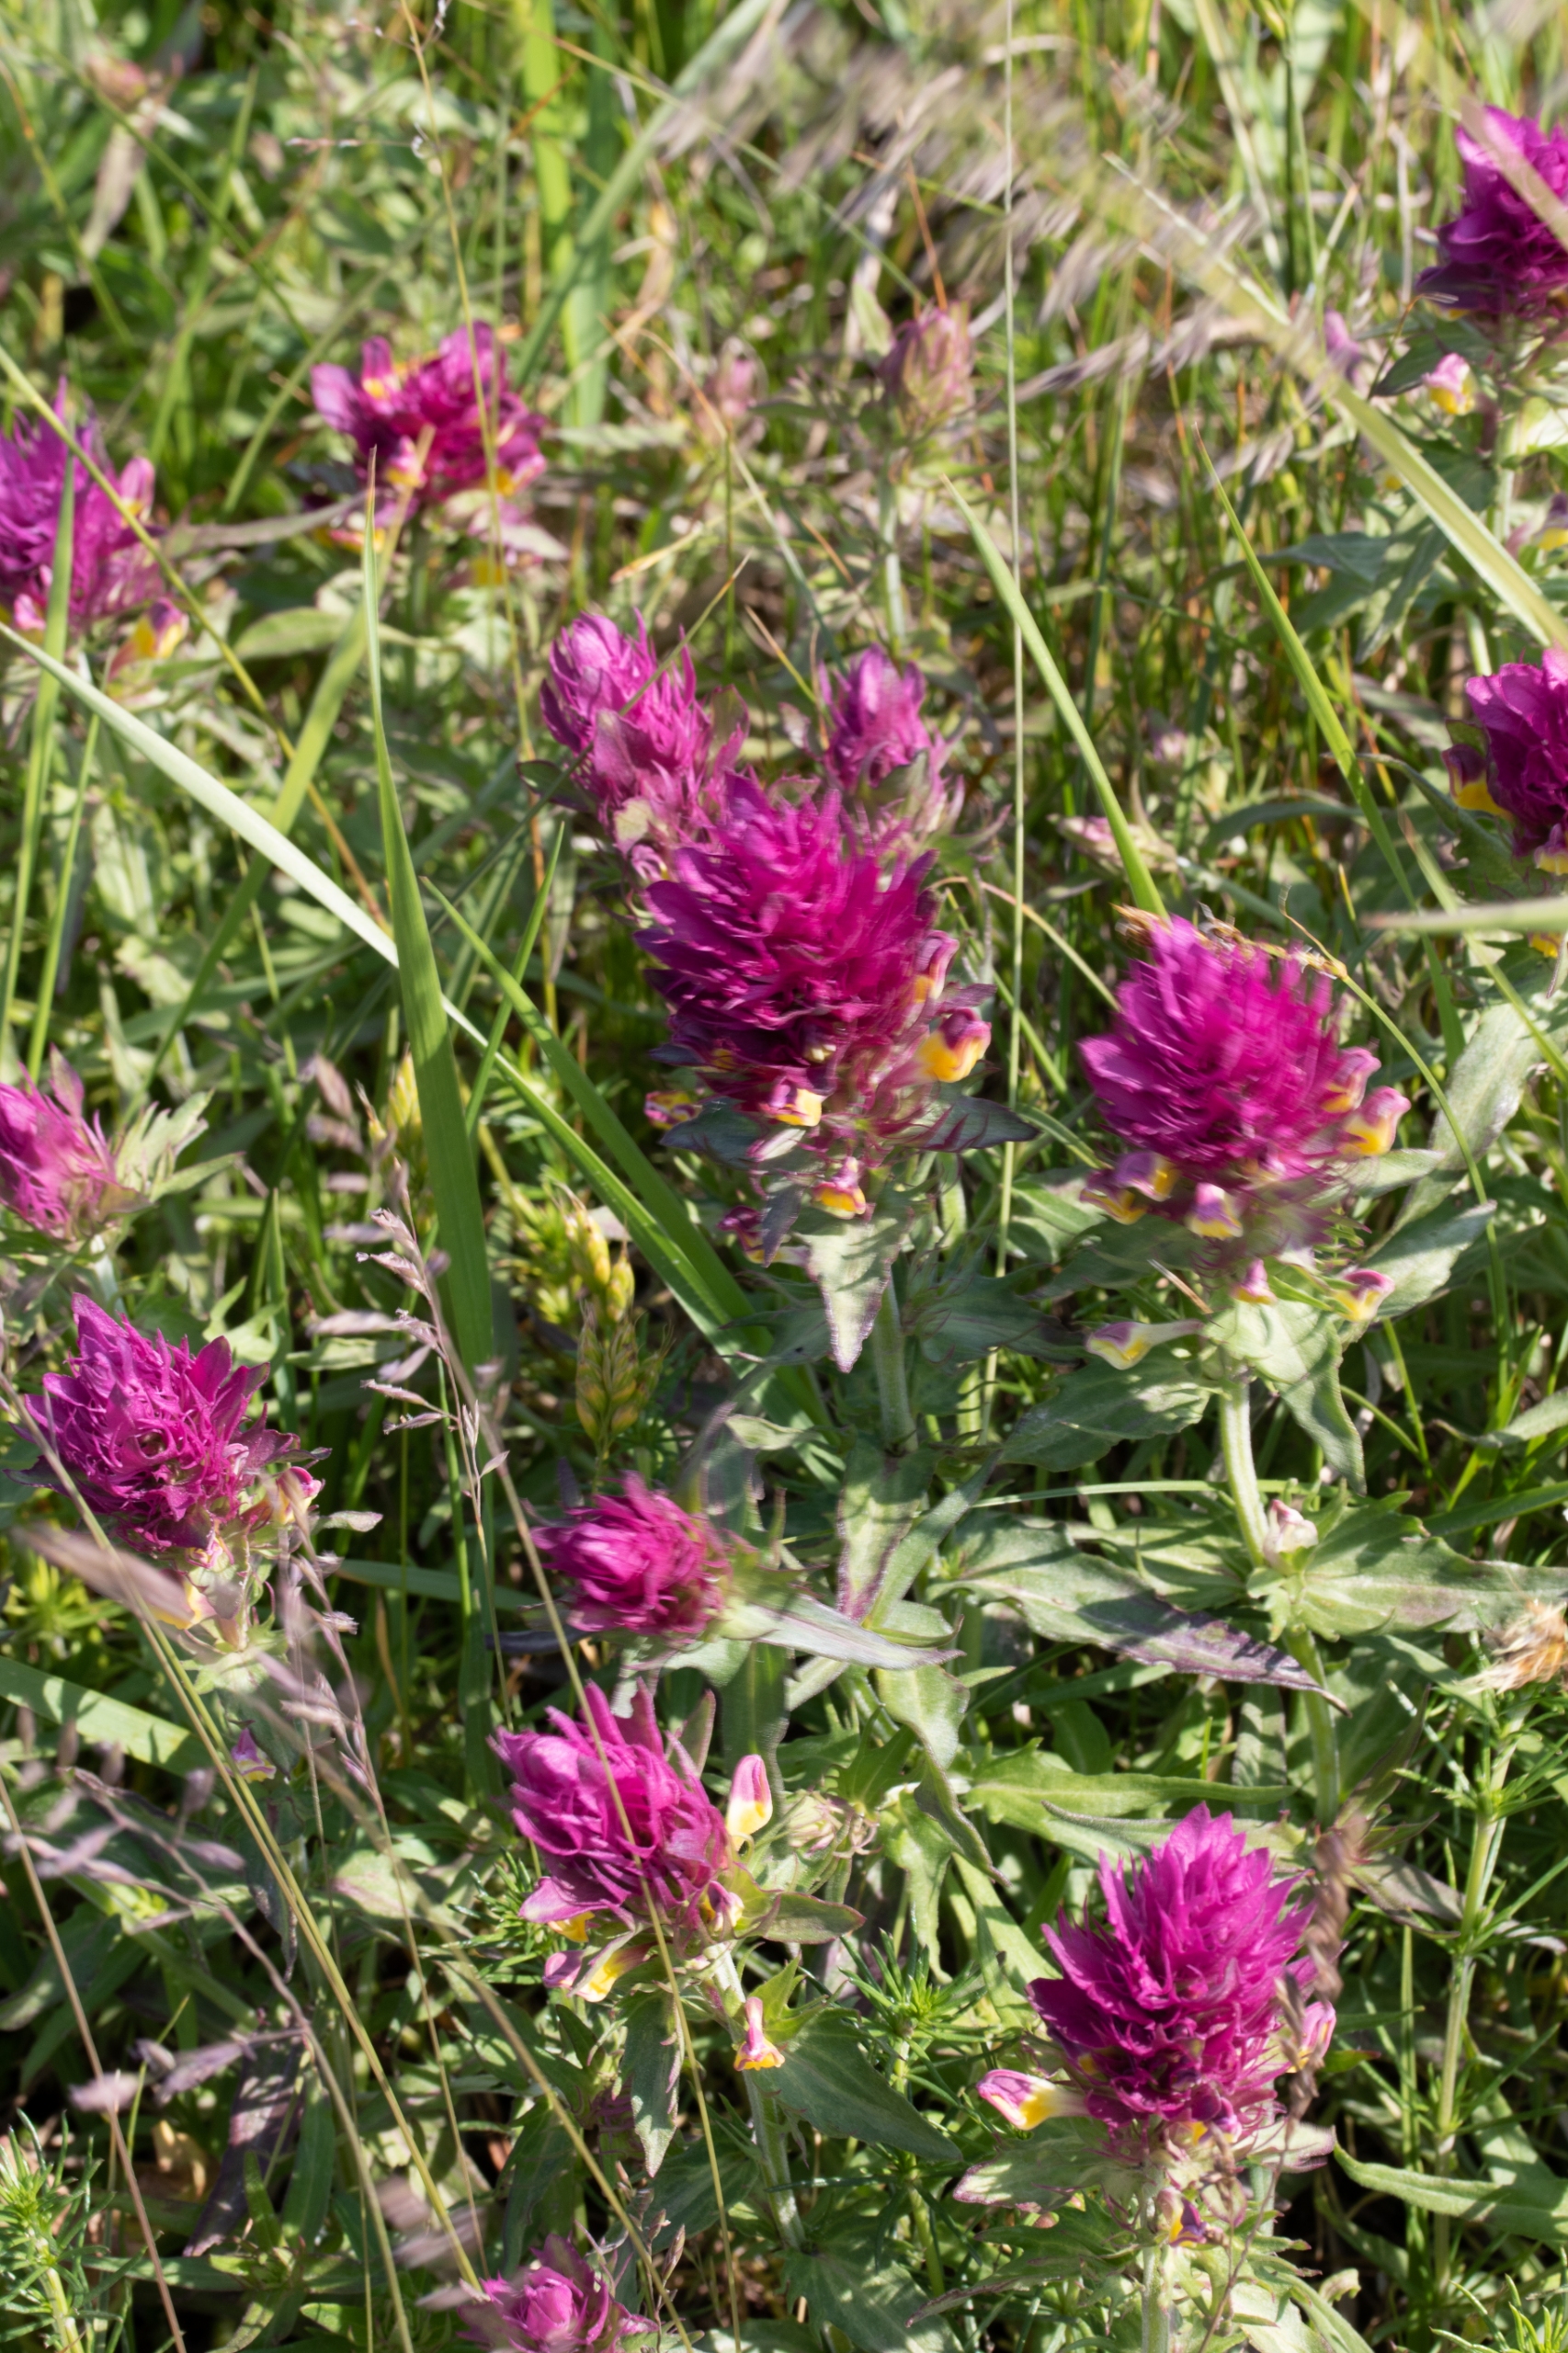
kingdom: Plantae
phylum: Tracheophyta
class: Magnoliopsida
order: Lamiales
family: Orobanchaceae
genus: Melampyrum
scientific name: Melampyrum arvense
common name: Ager-kohvede
